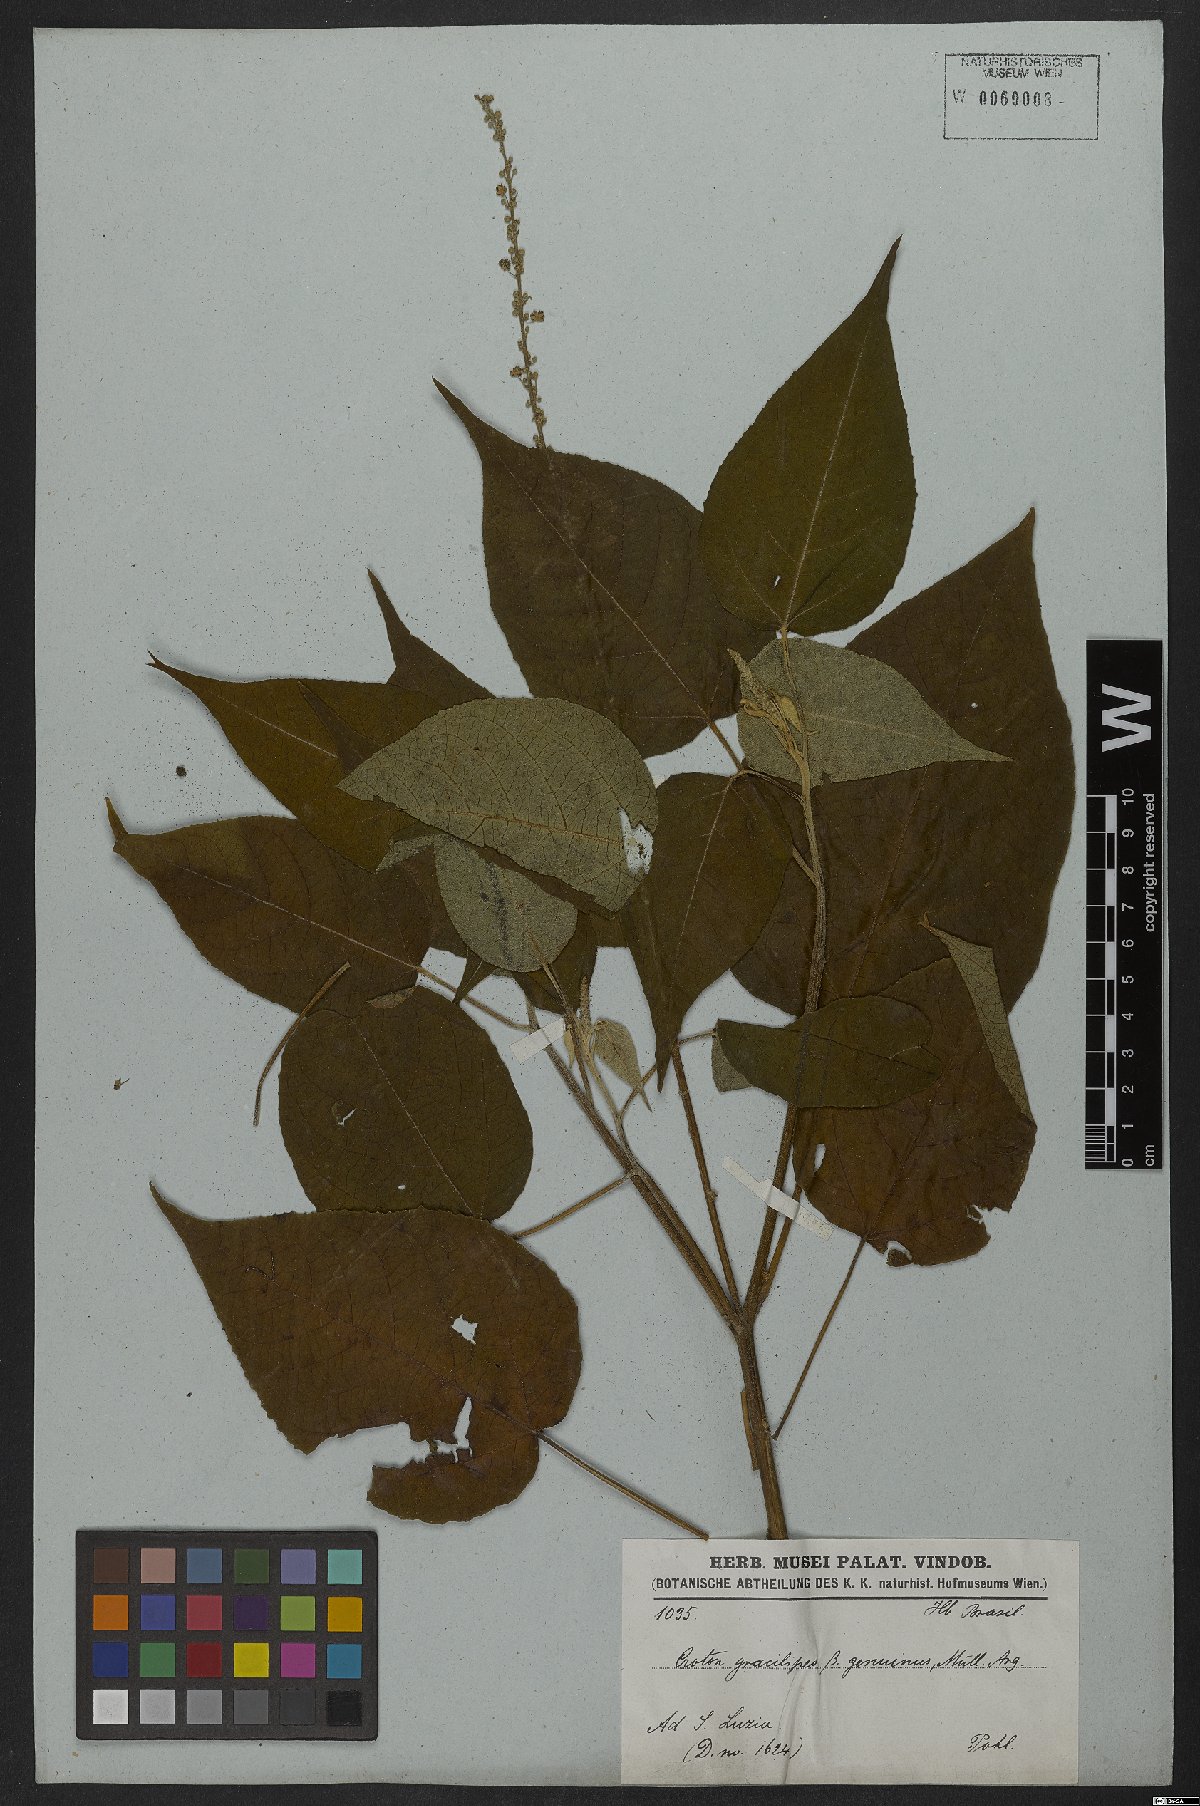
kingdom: Plantae
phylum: Tracheophyta
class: Magnoliopsida
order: Malpighiales
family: Euphorbiaceae
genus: Croton
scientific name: Croton gracilipes
